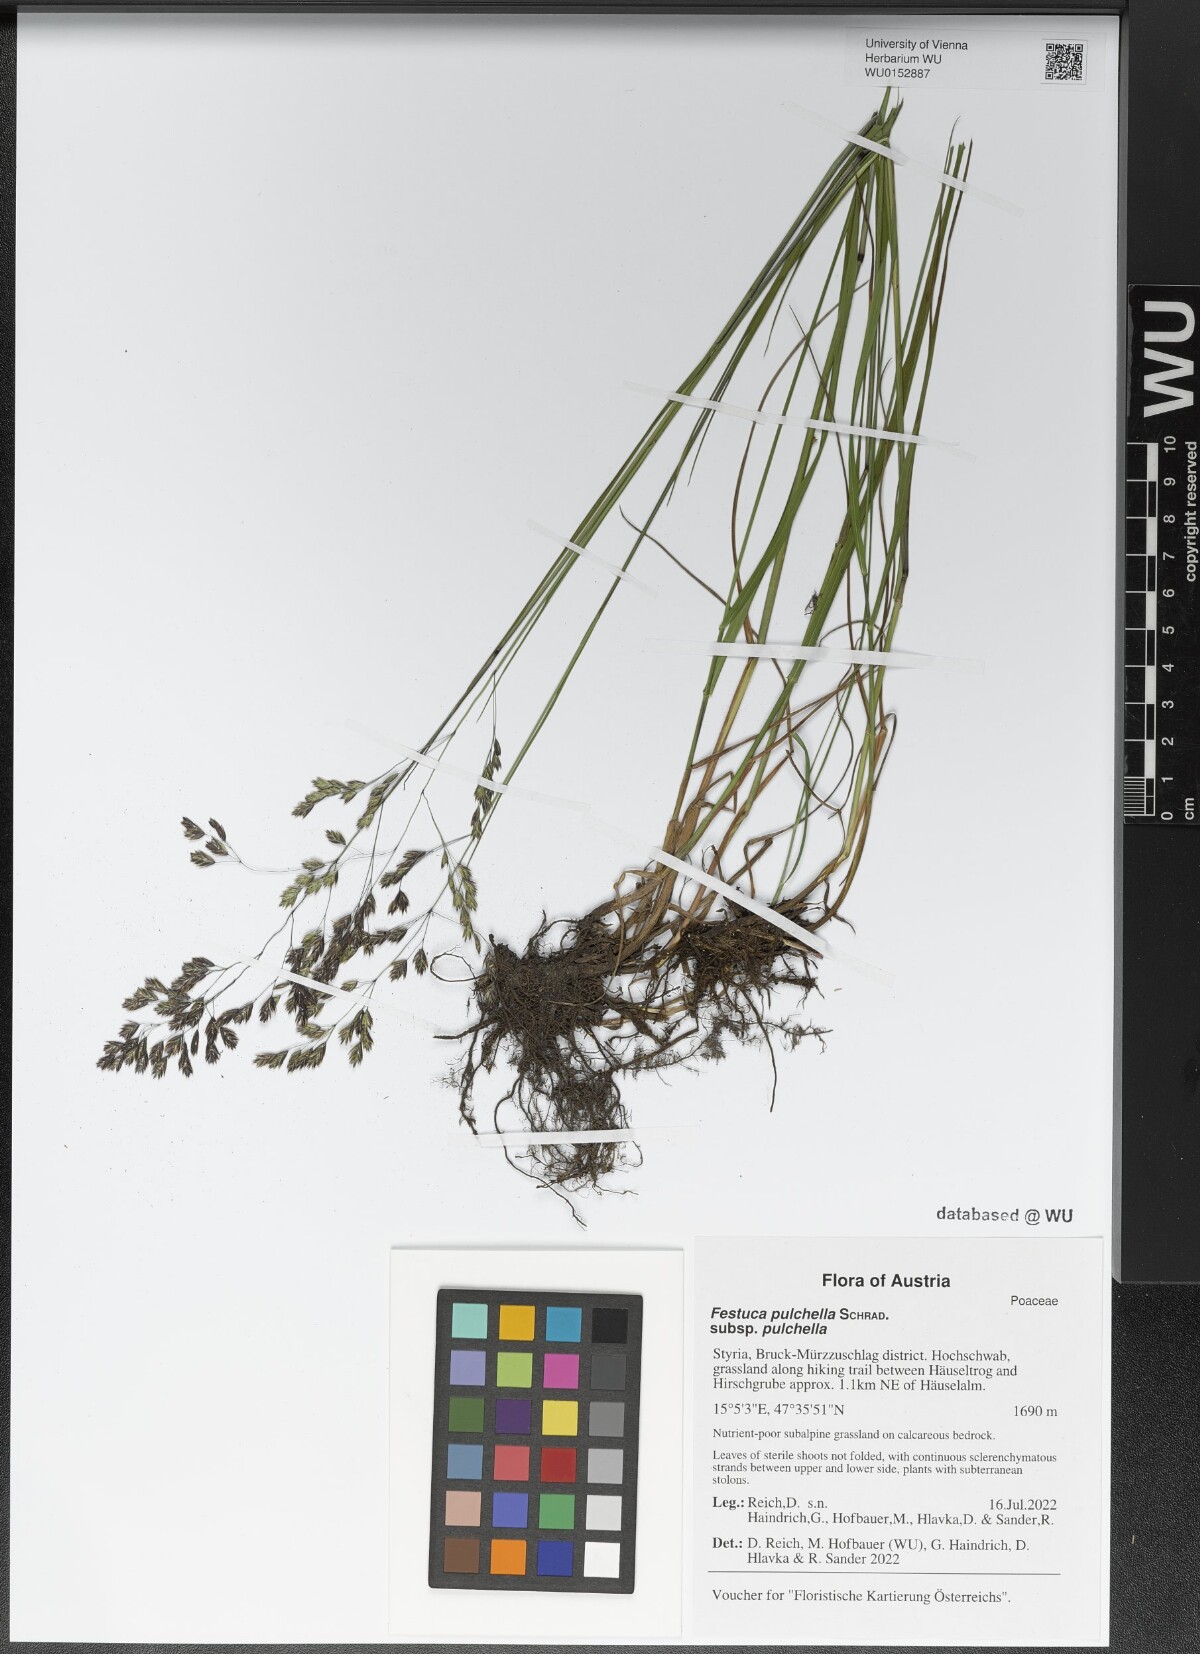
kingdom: Plantae
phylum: Tracheophyta
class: Liliopsida
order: Poales
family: Poaceae
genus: Festuca
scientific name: Festuca pulchella
